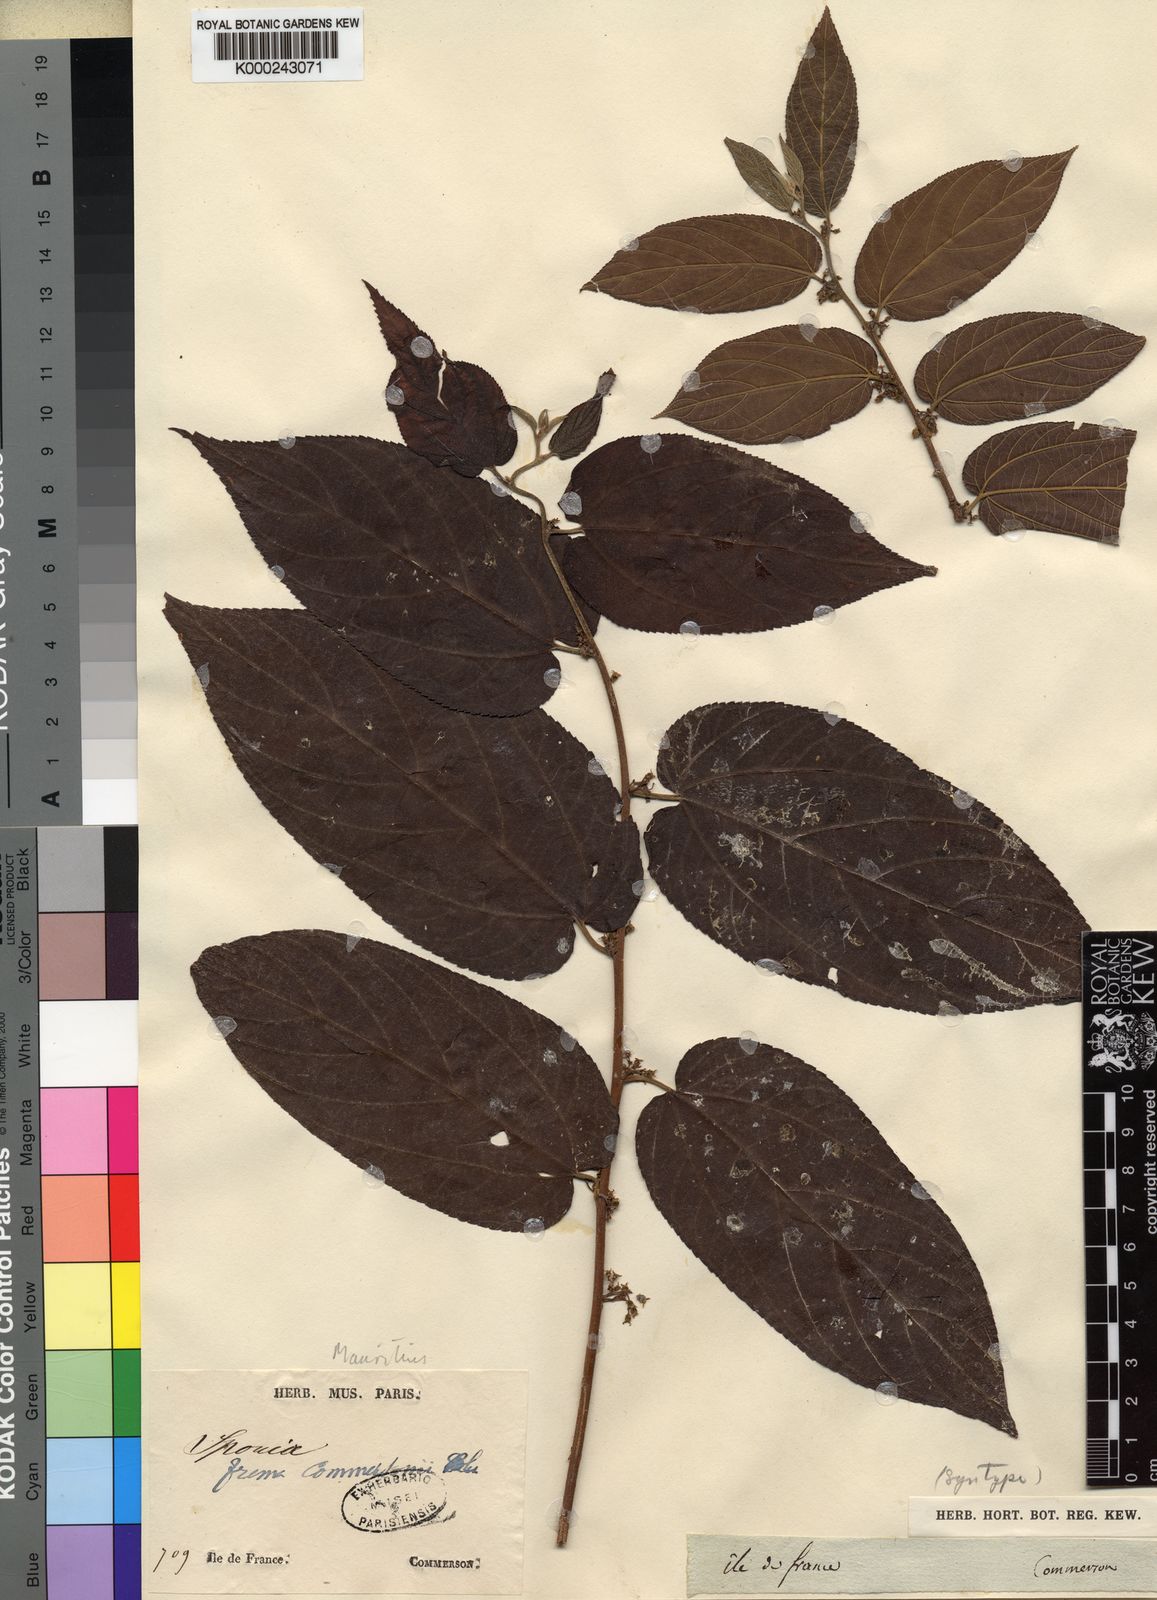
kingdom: Plantae
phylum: Tracheophyta
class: Magnoliopsida
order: Rosales
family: Cannabaceae
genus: Trema
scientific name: Trema
